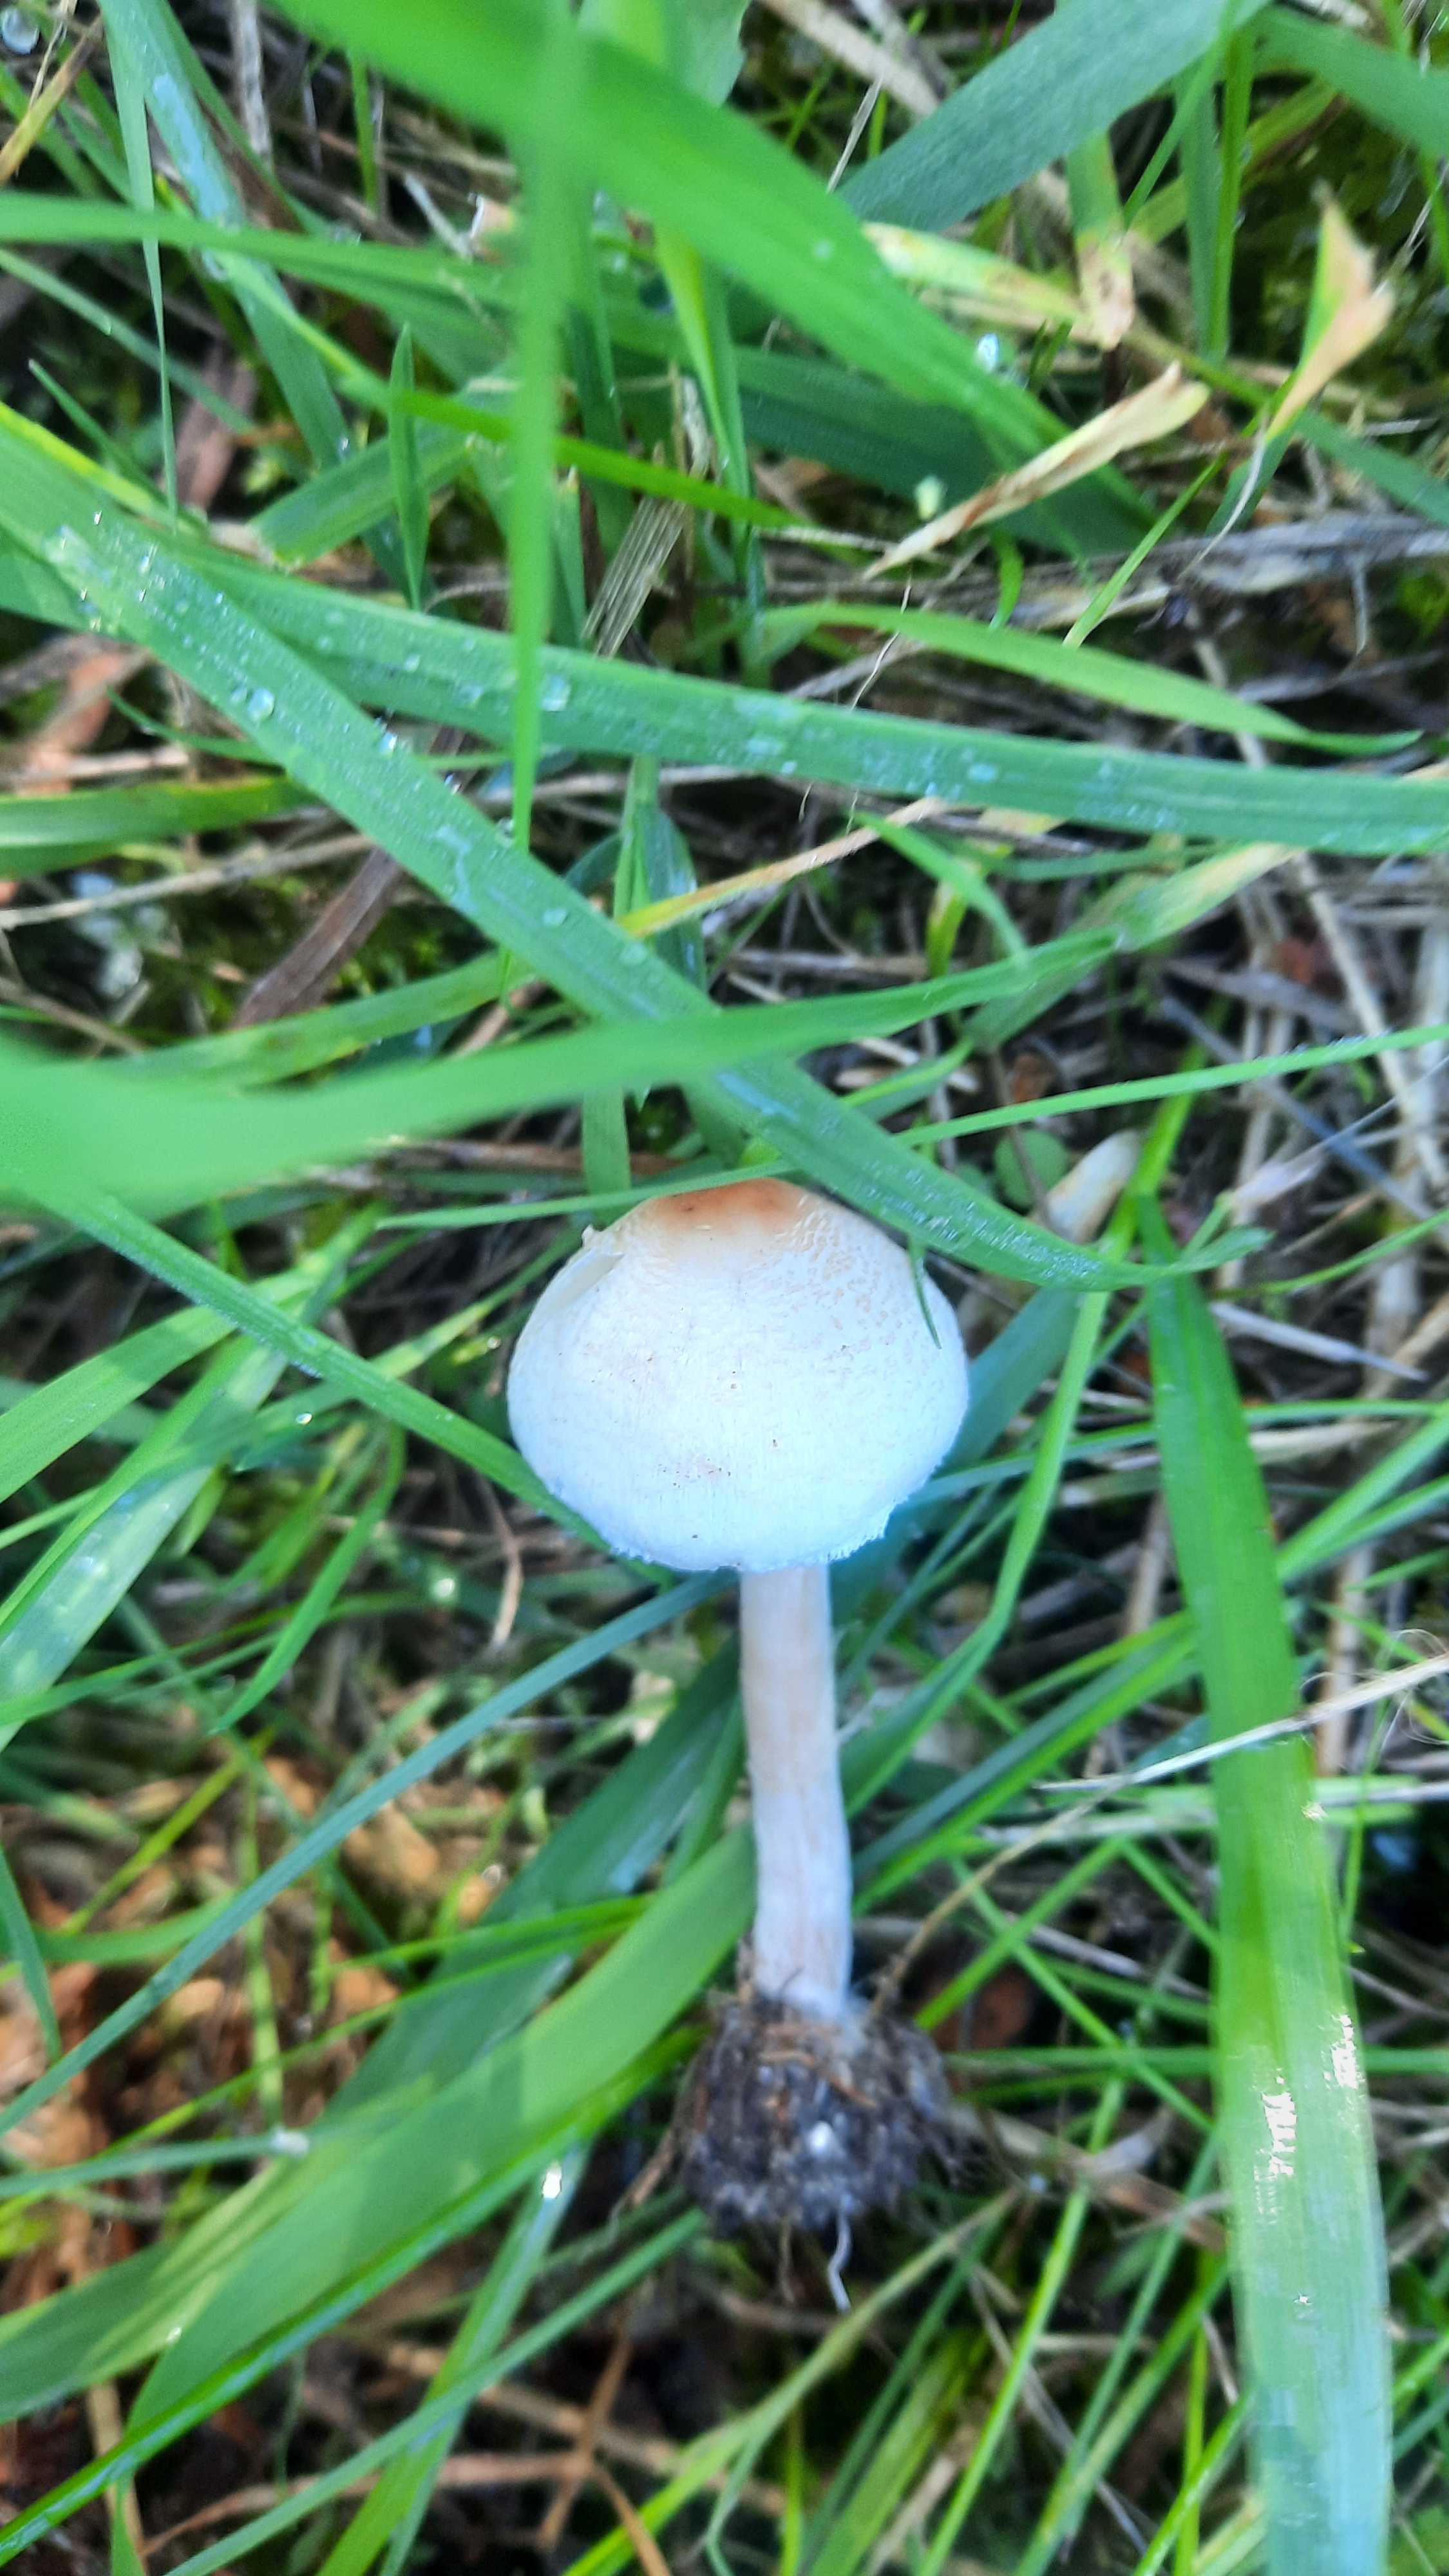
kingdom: Fungi
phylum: Basidiomycota
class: Agaricomycetes
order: Agaricales
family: Agaricaceae
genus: Lepiota
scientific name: Lepiota cristata
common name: stinkende parasolhat
